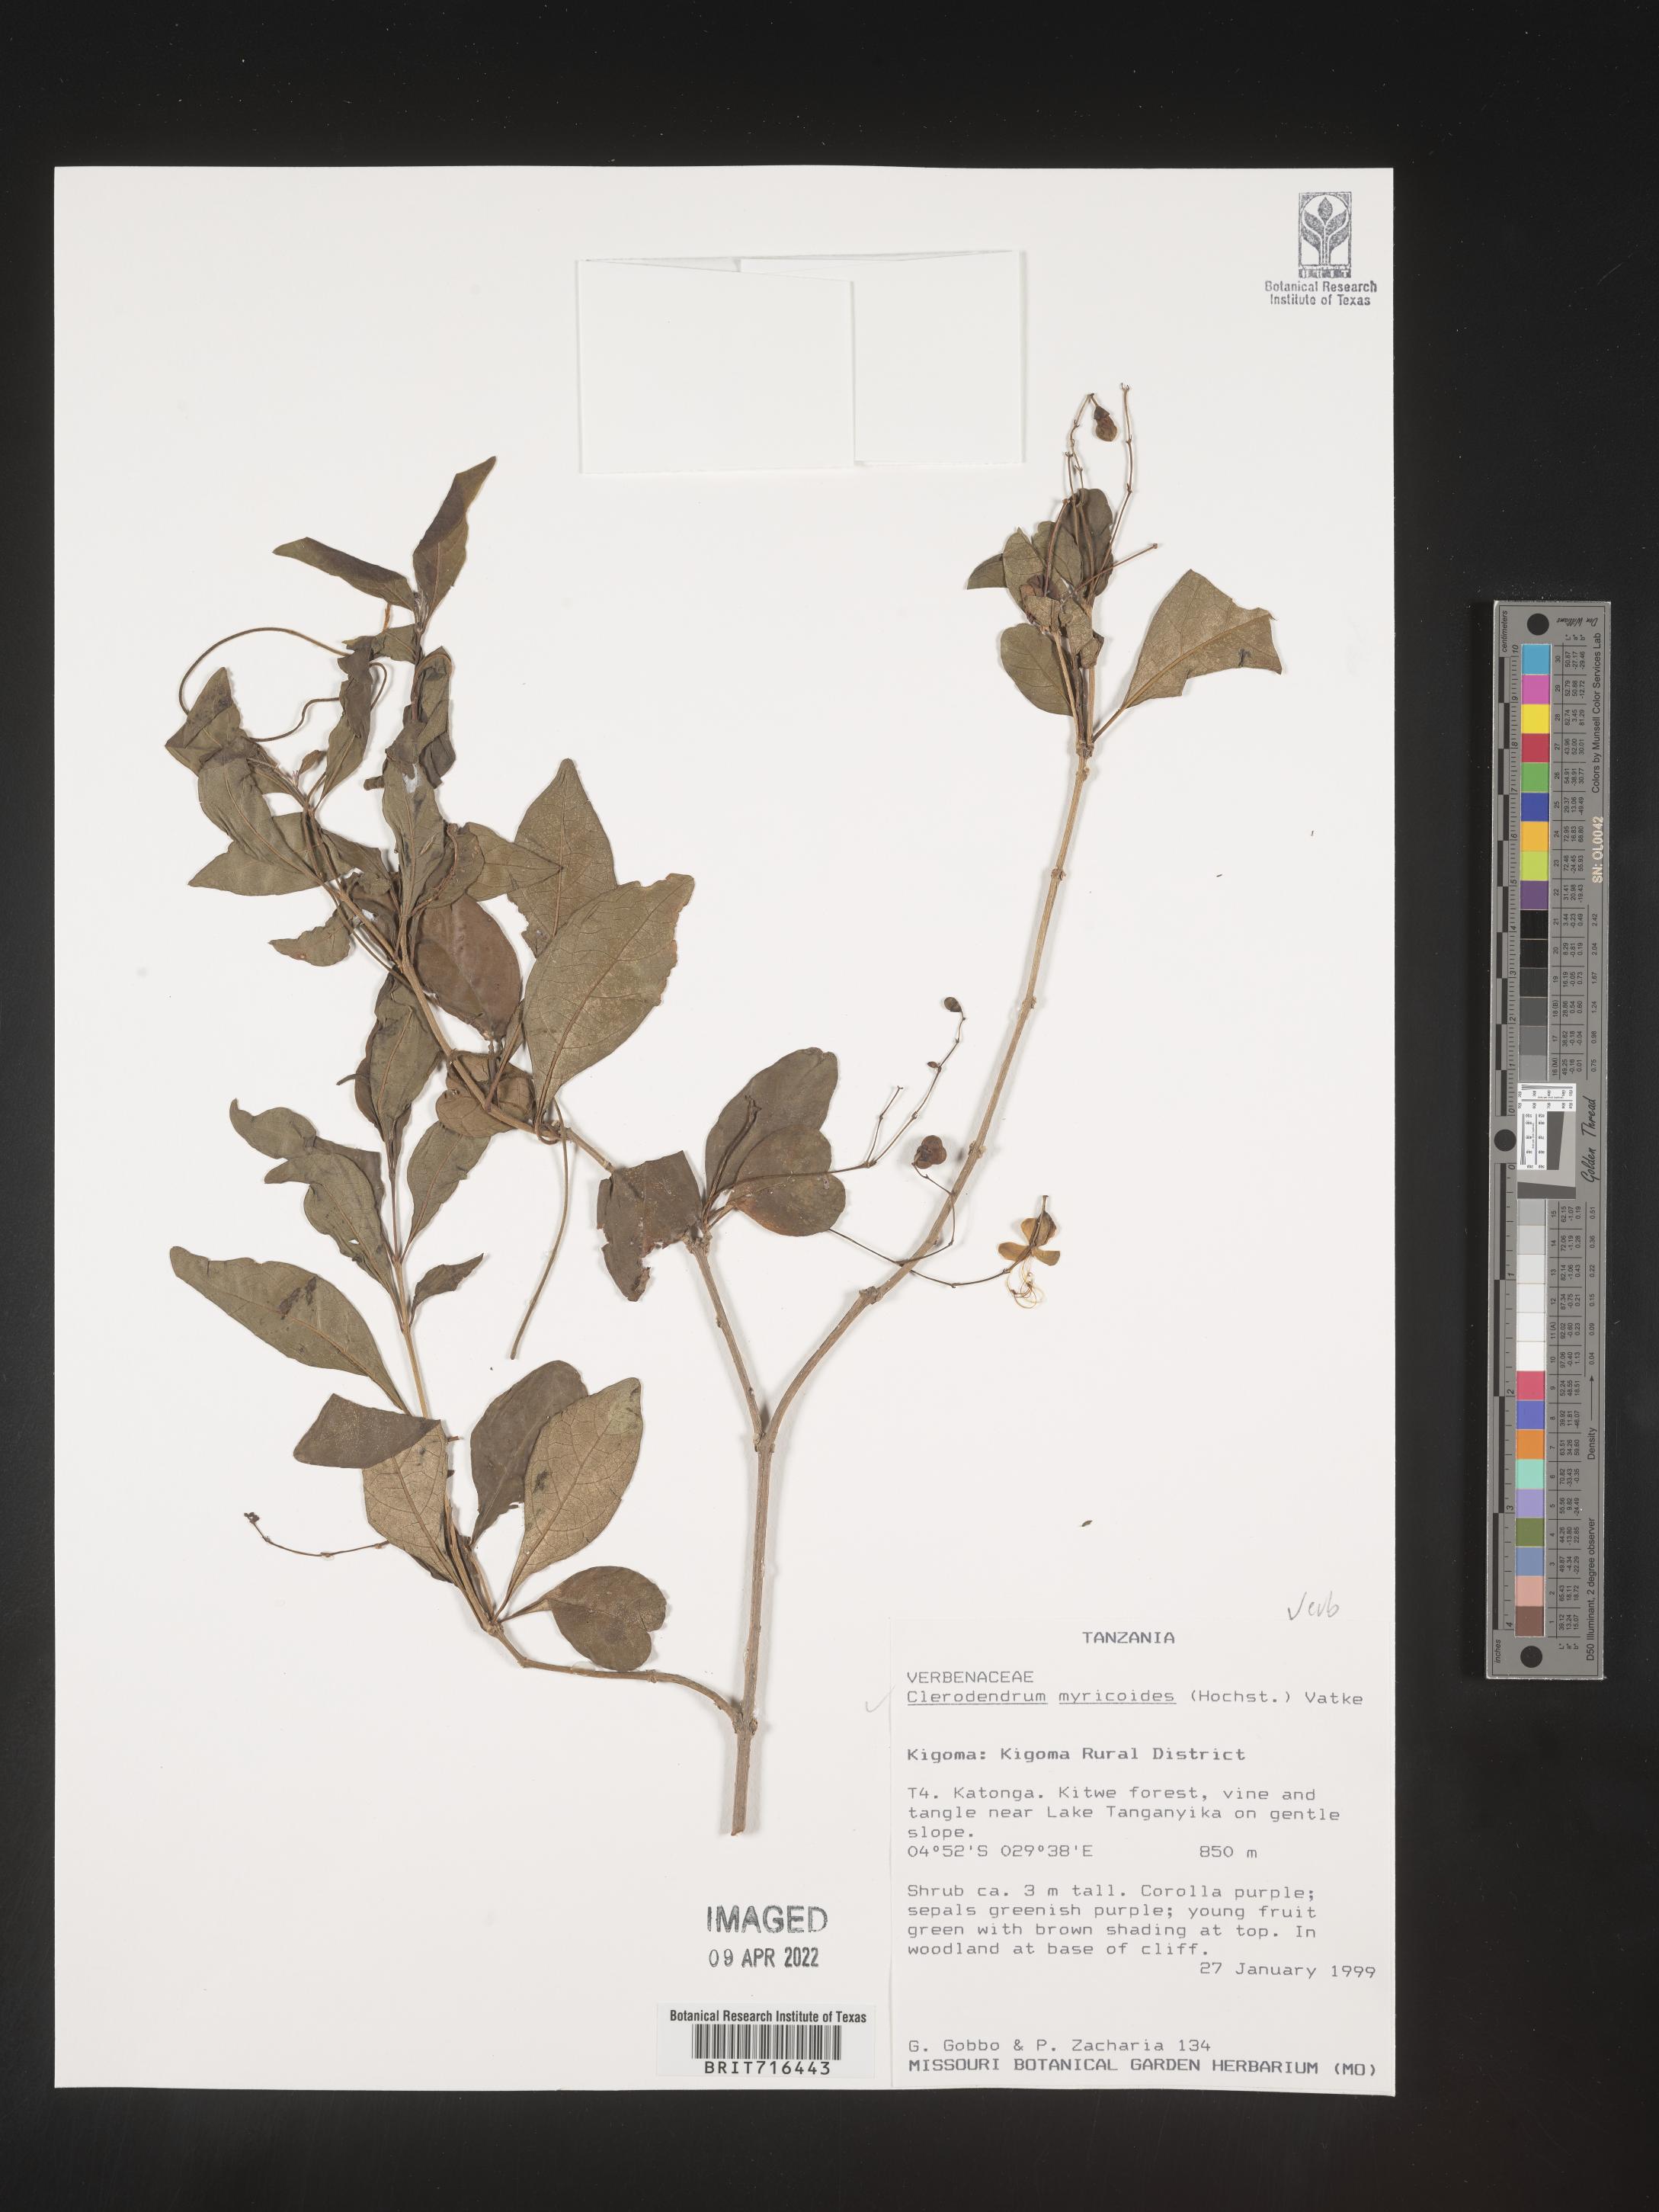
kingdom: Plantae
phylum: Tracheophyta
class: Magnoliopsida
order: Lamiales
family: Lamiaceae
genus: Clerodendrum
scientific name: Clerodendrum
